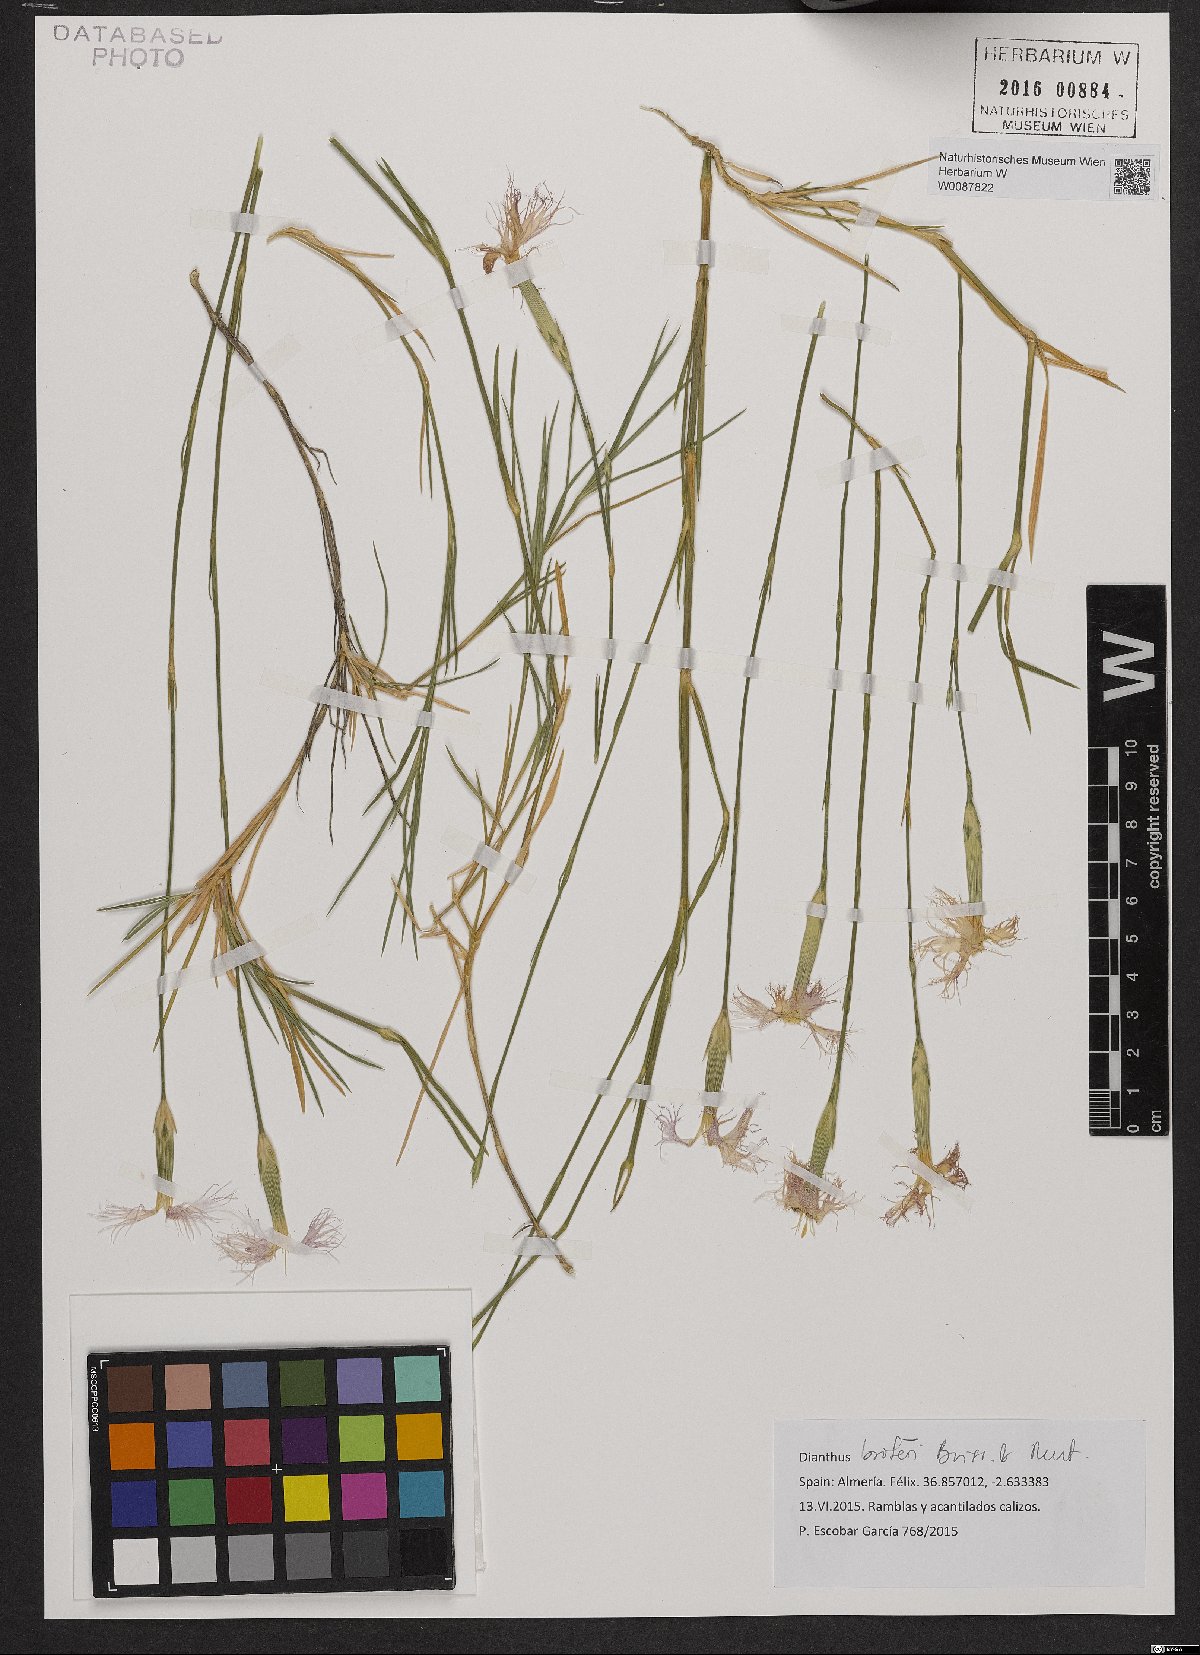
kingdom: Plantae
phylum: Tracheophyta
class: Magnoliopsida
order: Caryophyllales
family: Caryophyllaceae
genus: Dianthus
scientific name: Dianthus broteri
